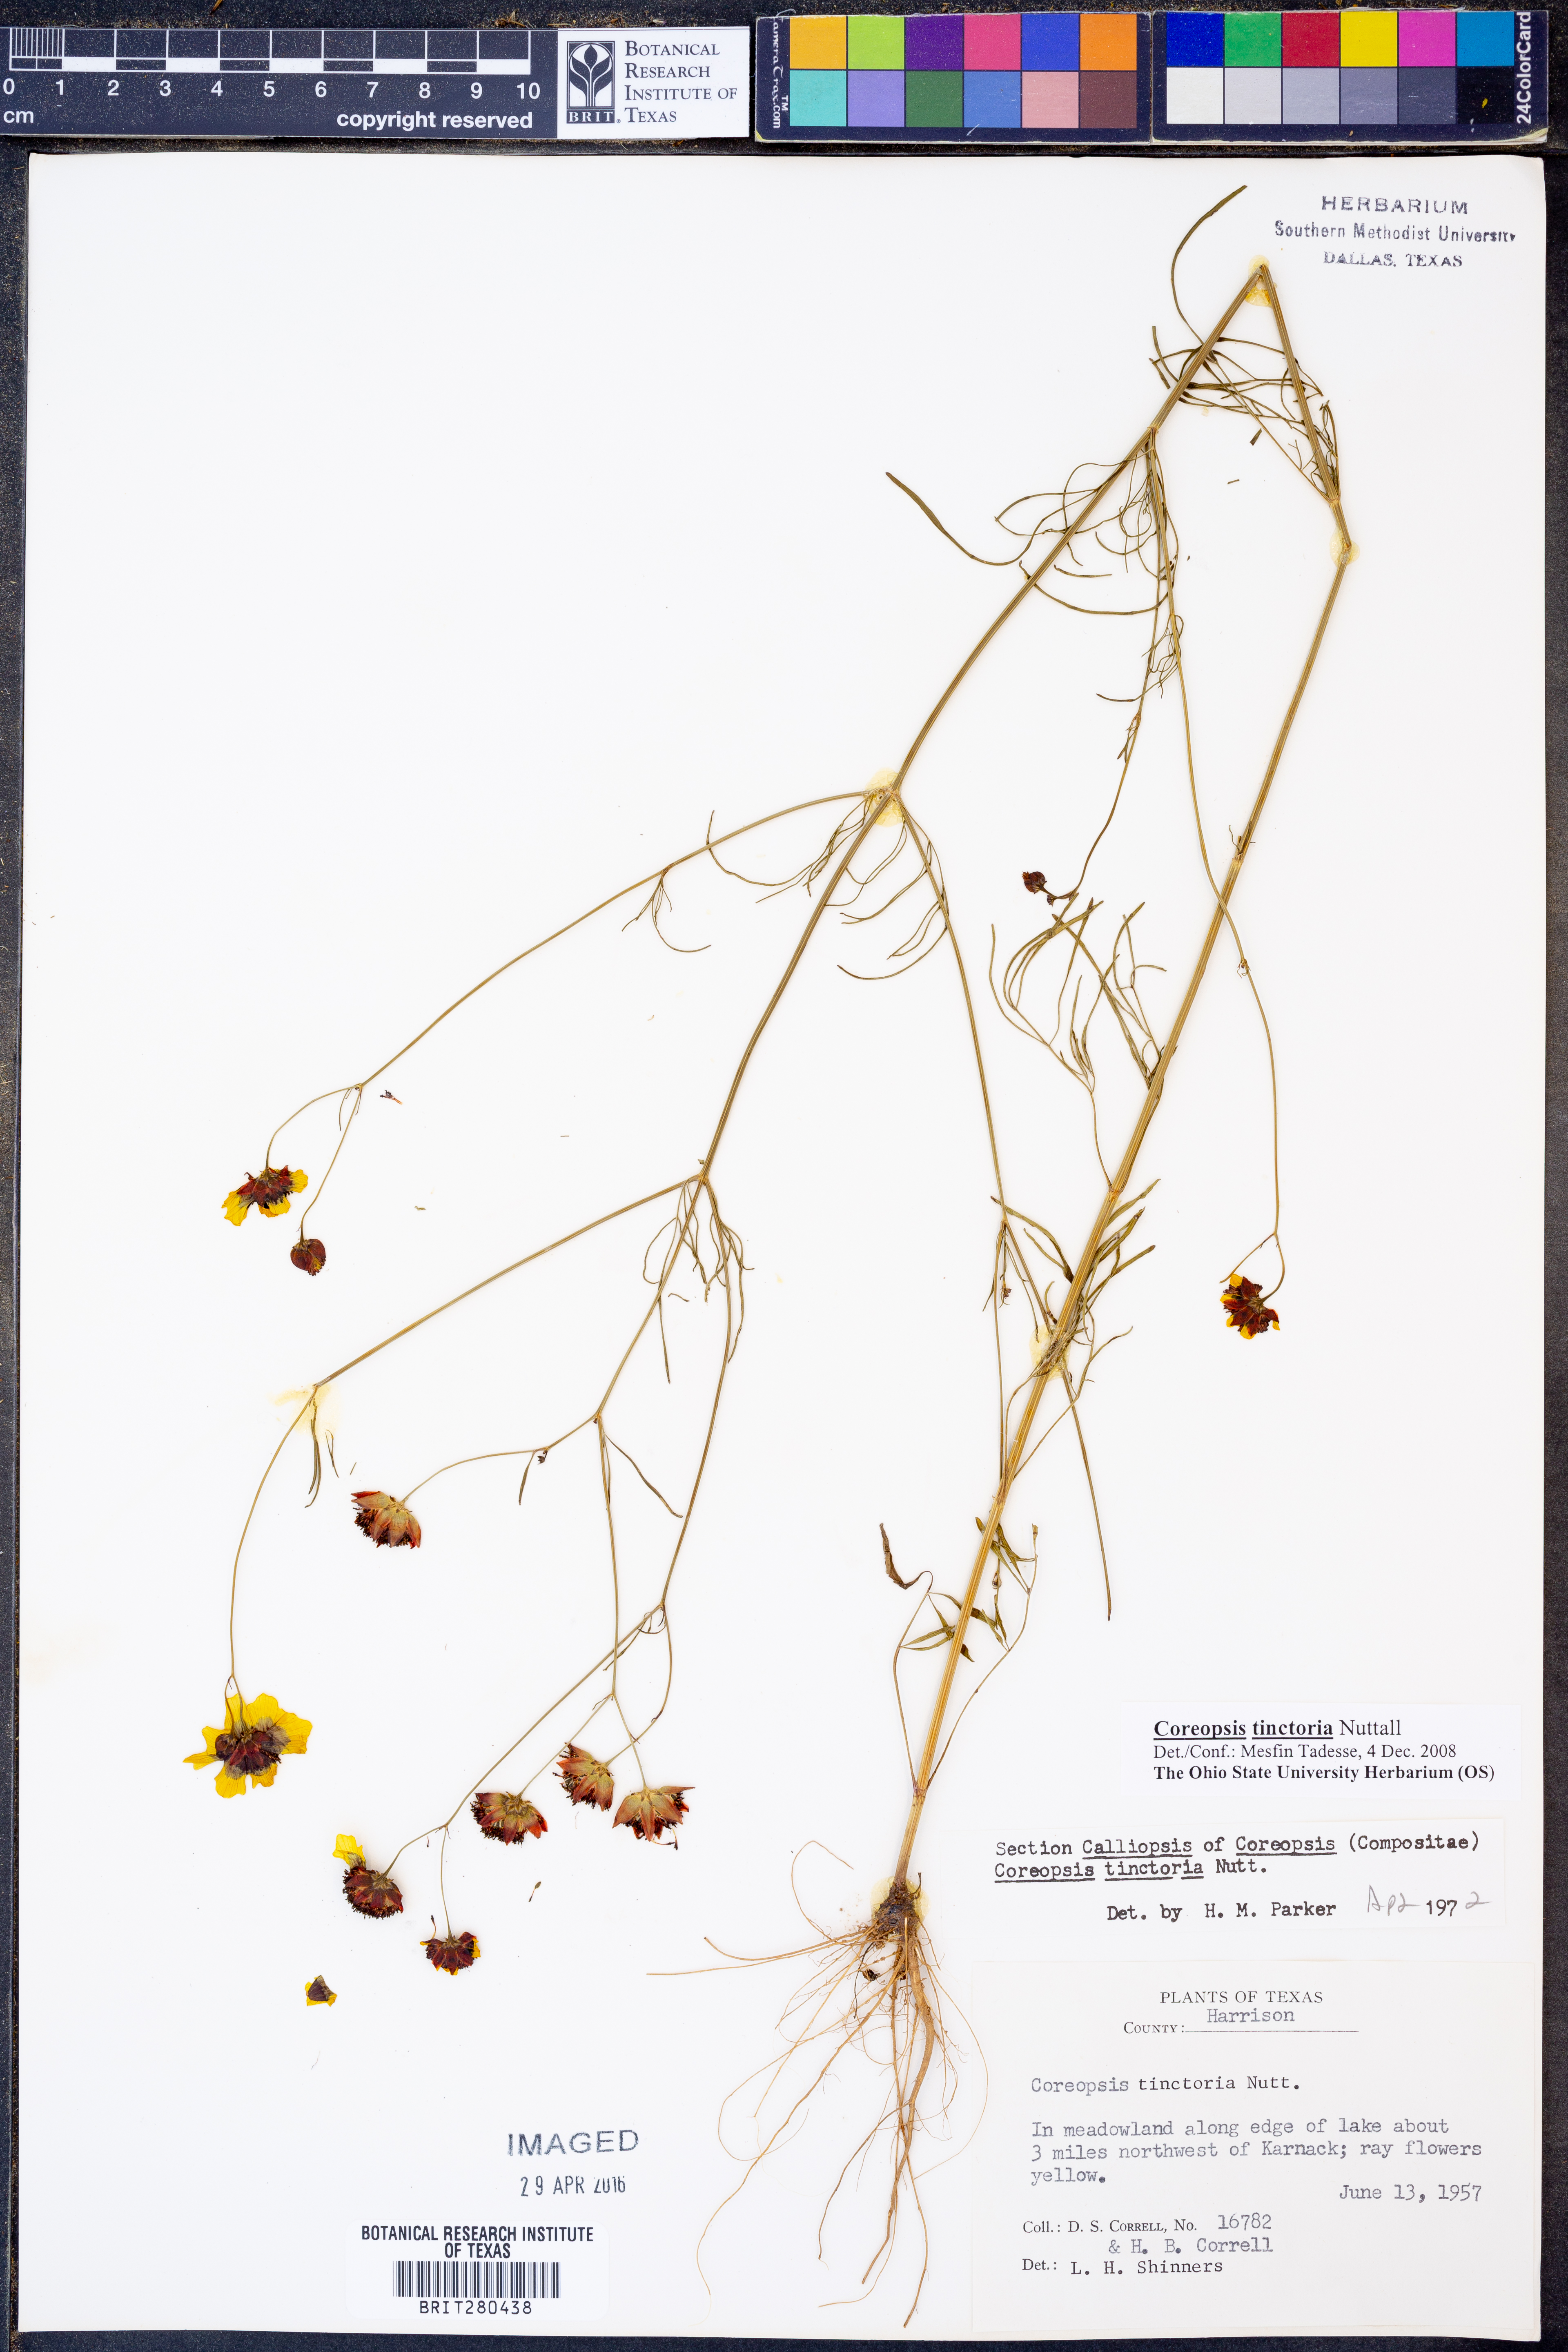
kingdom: Plantae
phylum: Tracheophyta
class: Magnoliopsida
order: Asterales
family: Asteraceae
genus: Coreopsis
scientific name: Coreopsis tinctoria
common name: Garden tickseed
